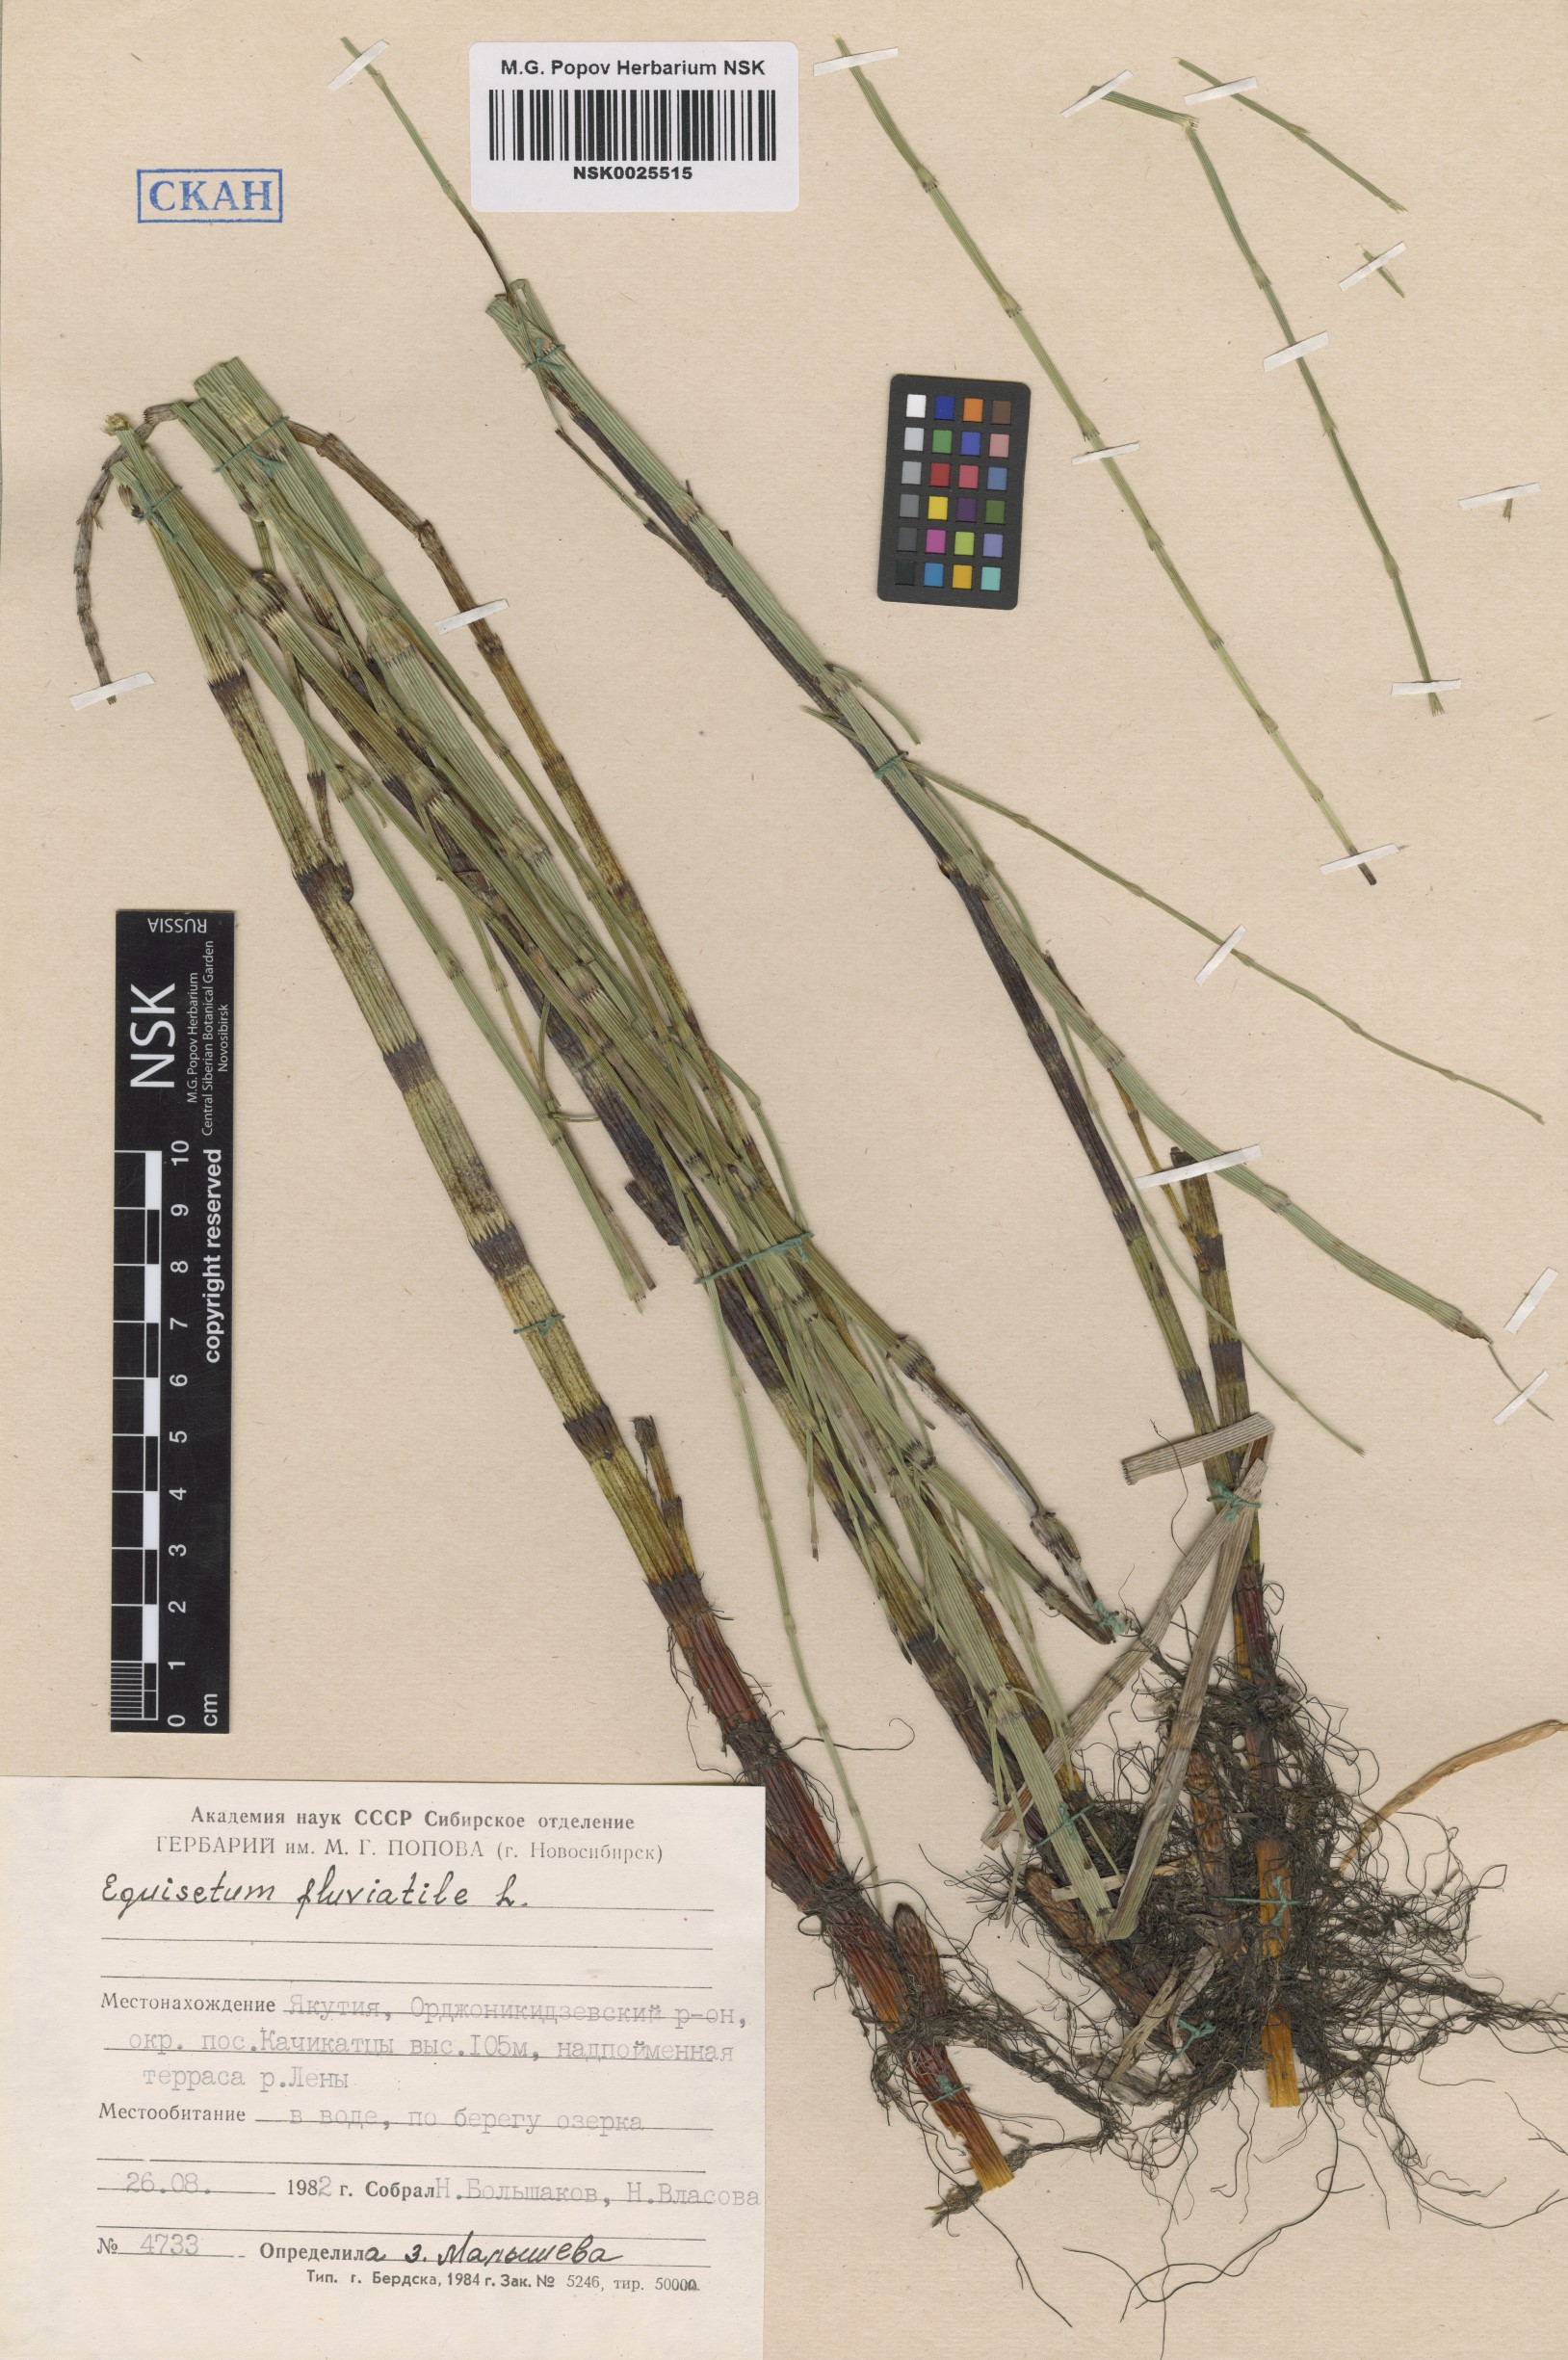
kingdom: Plantae
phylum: Tracheophyta
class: Polypodiopsida
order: Equisetales
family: Equisetaceae
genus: Equisetum
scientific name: Equisetum fluviatile
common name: Water horsetail
